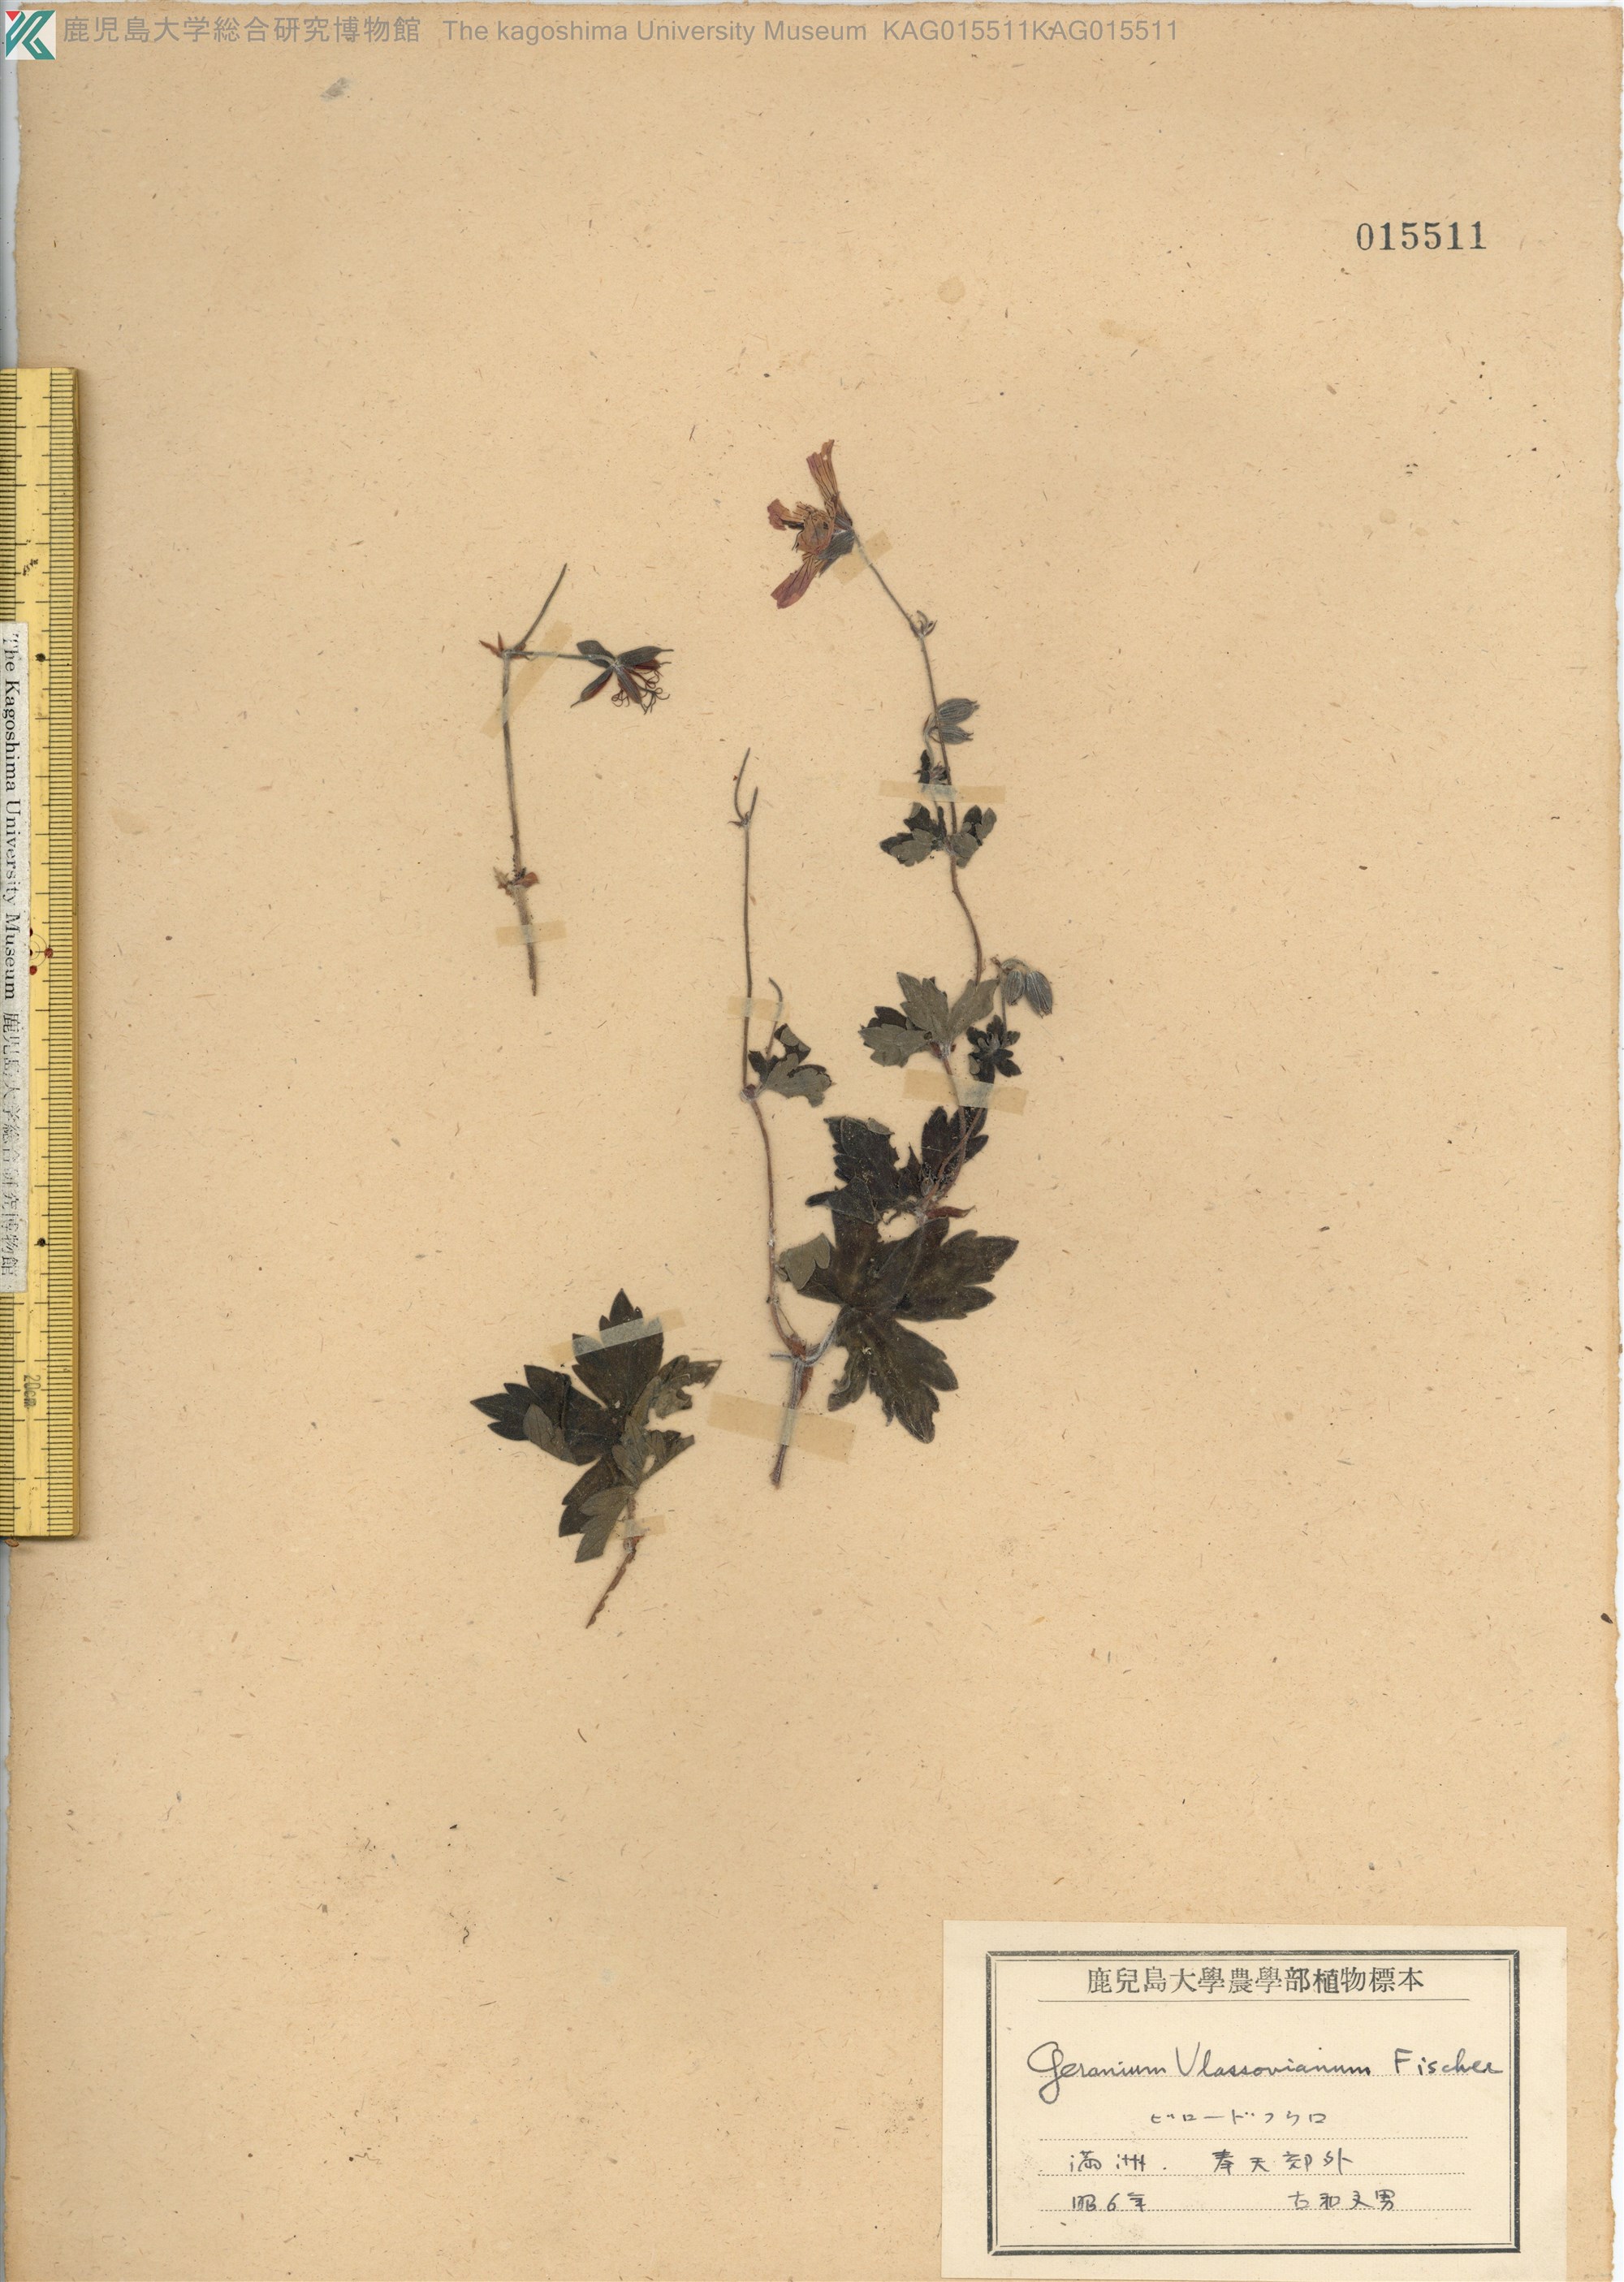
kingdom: Plantae
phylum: Tracheophyta
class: Magnoliopsida
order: Geraniales
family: Geraniaceae
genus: Geranium
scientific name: Geranium vlassovianum
